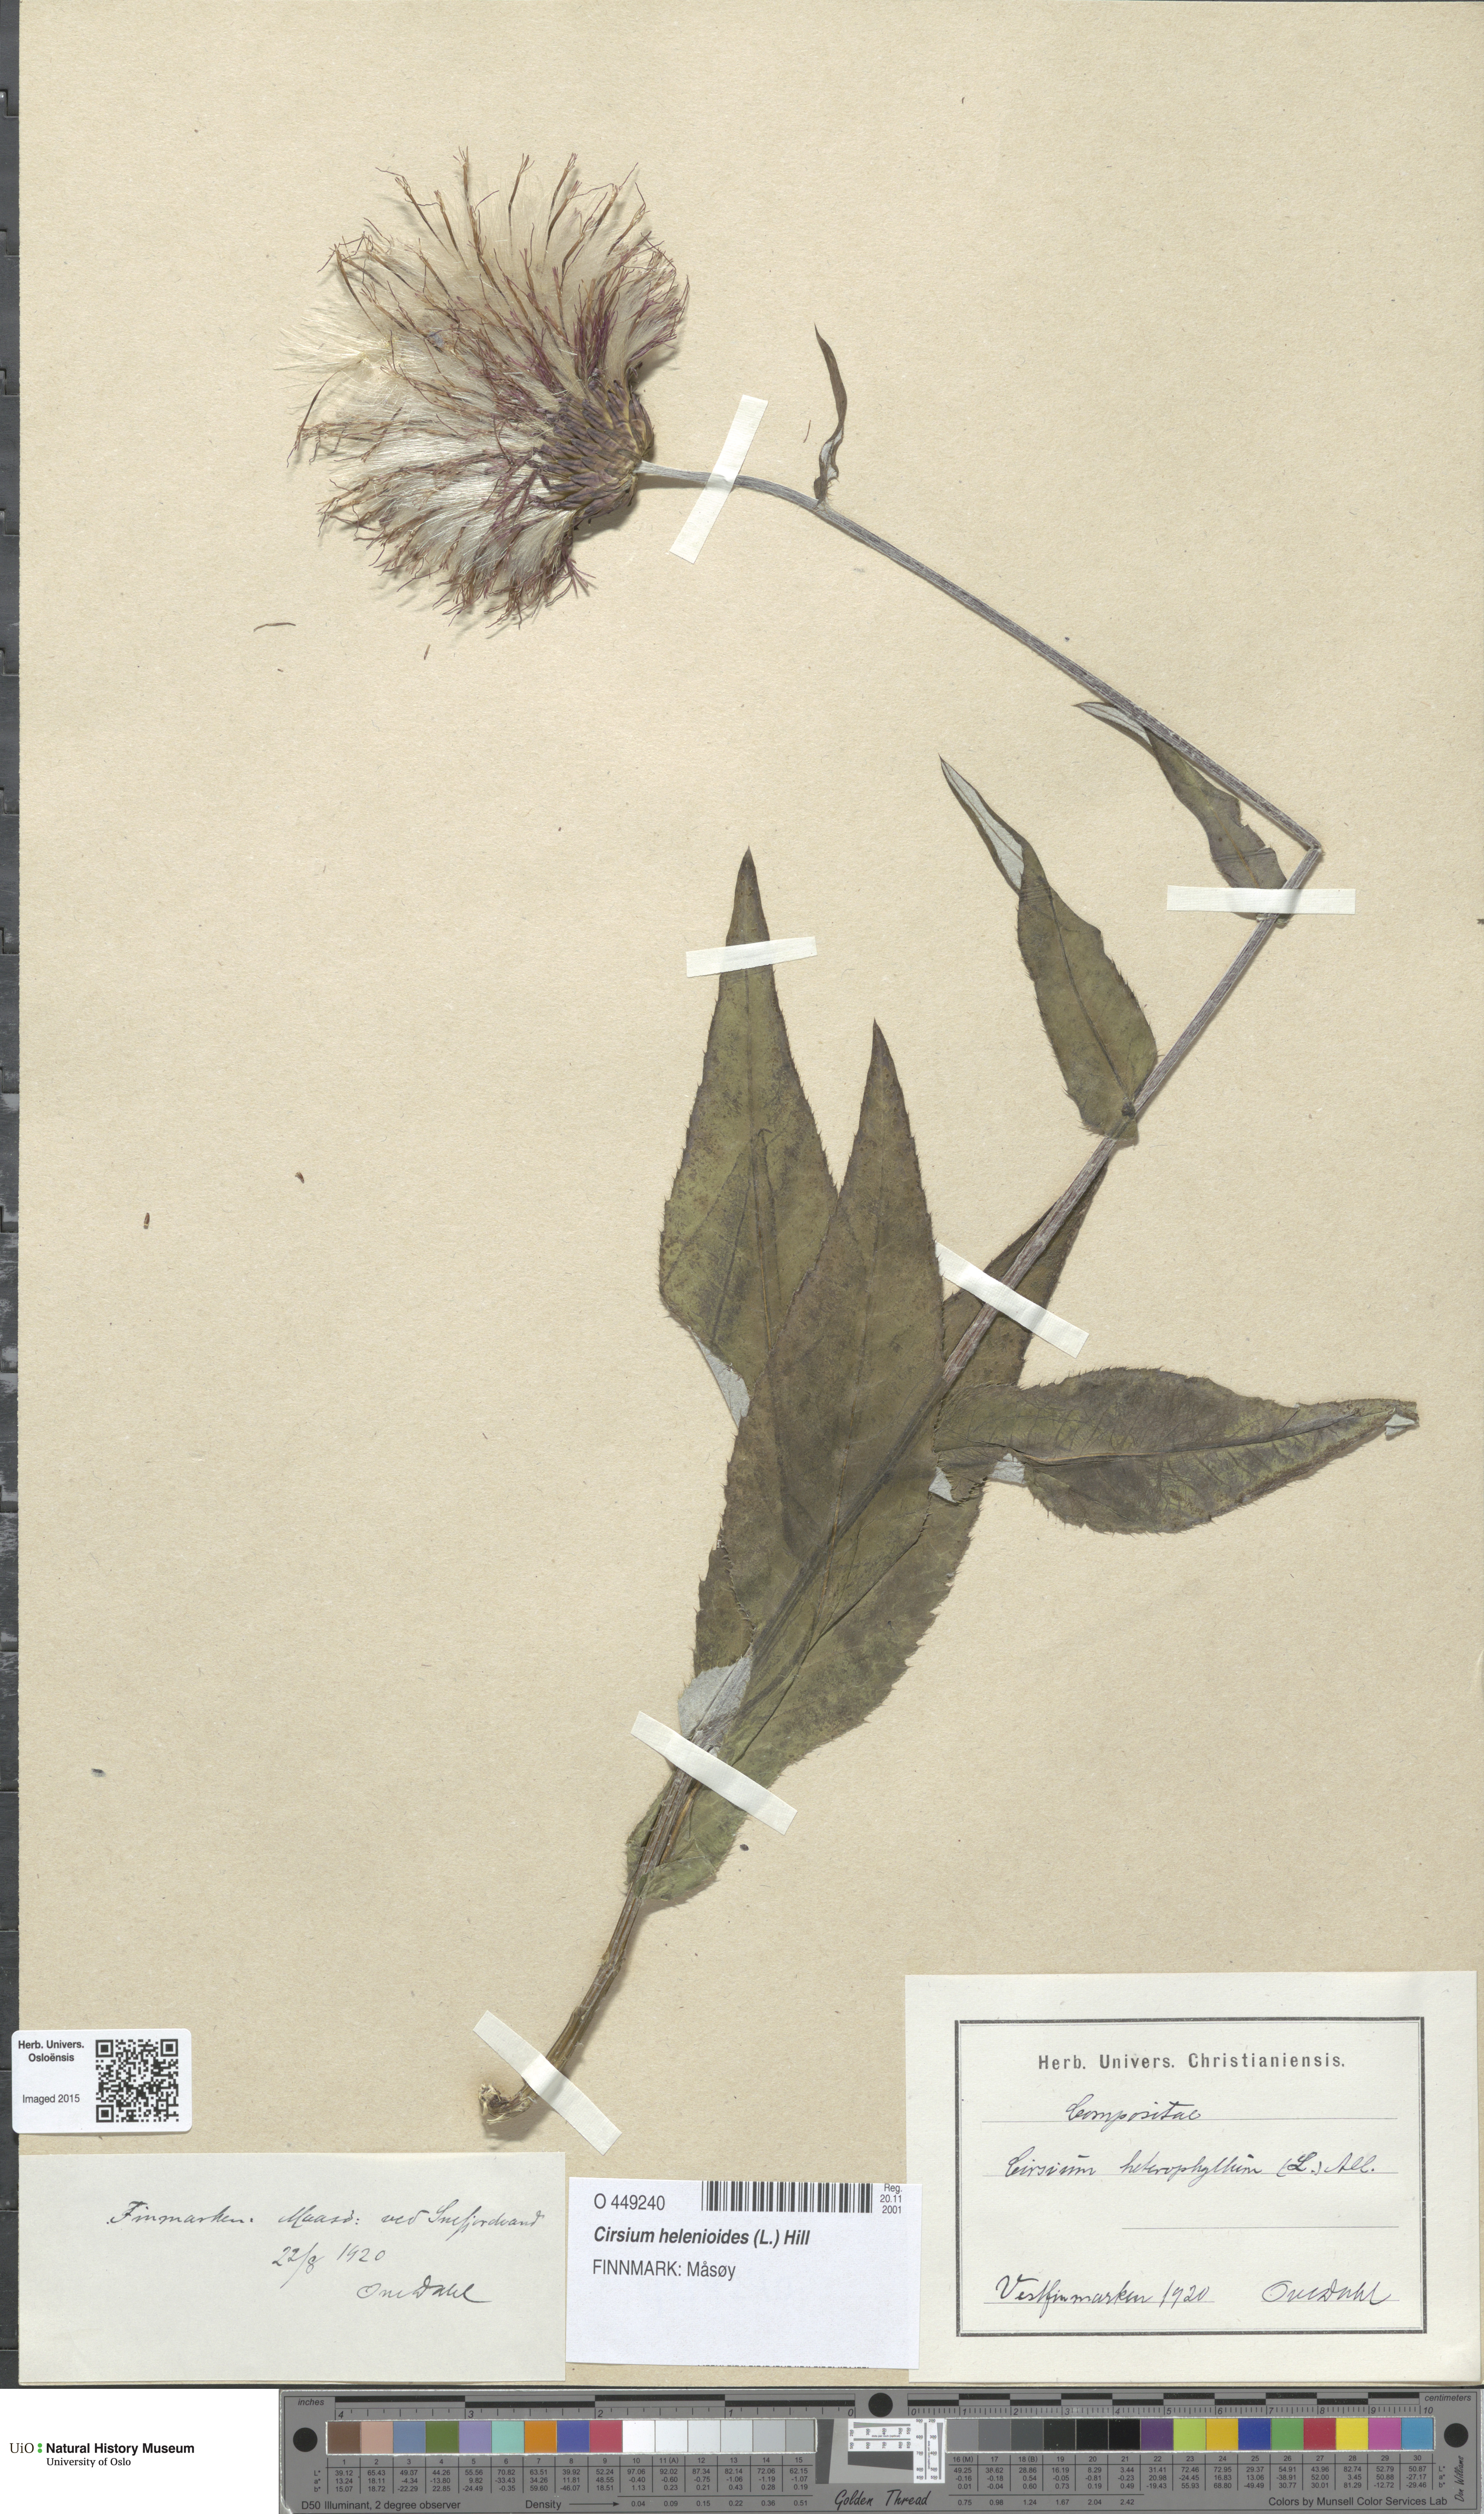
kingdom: Plantae
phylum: Tracheophyta
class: Magnoliopsida
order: Asterales
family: Asteraceae
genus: Cirsium
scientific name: Cirsium heterophyllum
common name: Melancholy thistle
